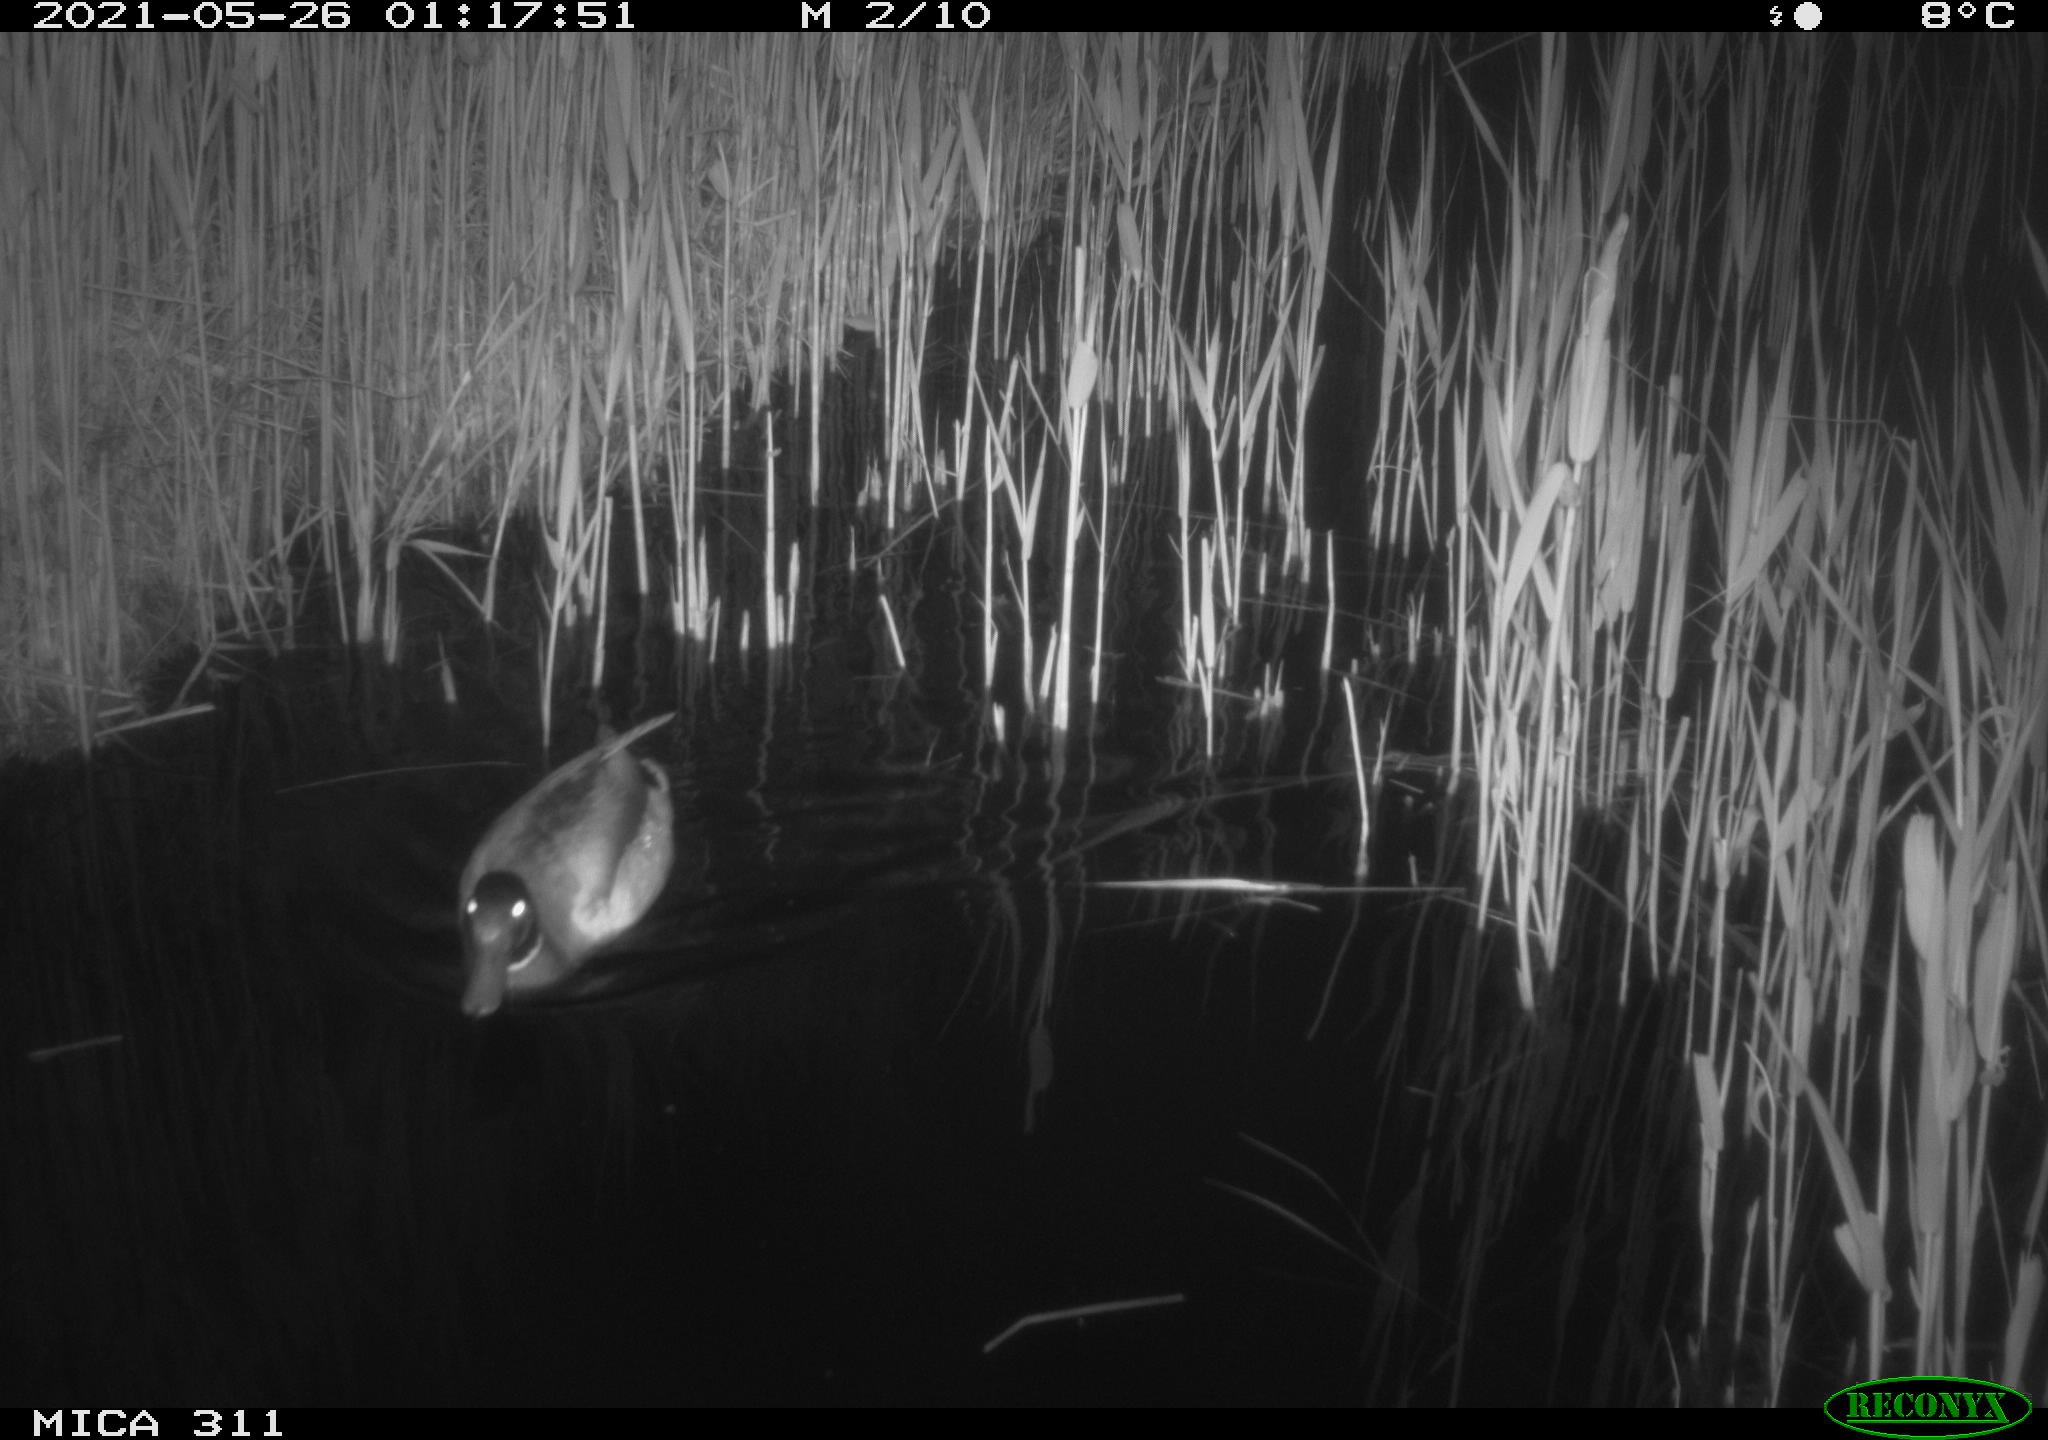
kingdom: Animalia
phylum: Chordata
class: Aves
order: Anseriformes
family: Anatidae
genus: Anas
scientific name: Anas
